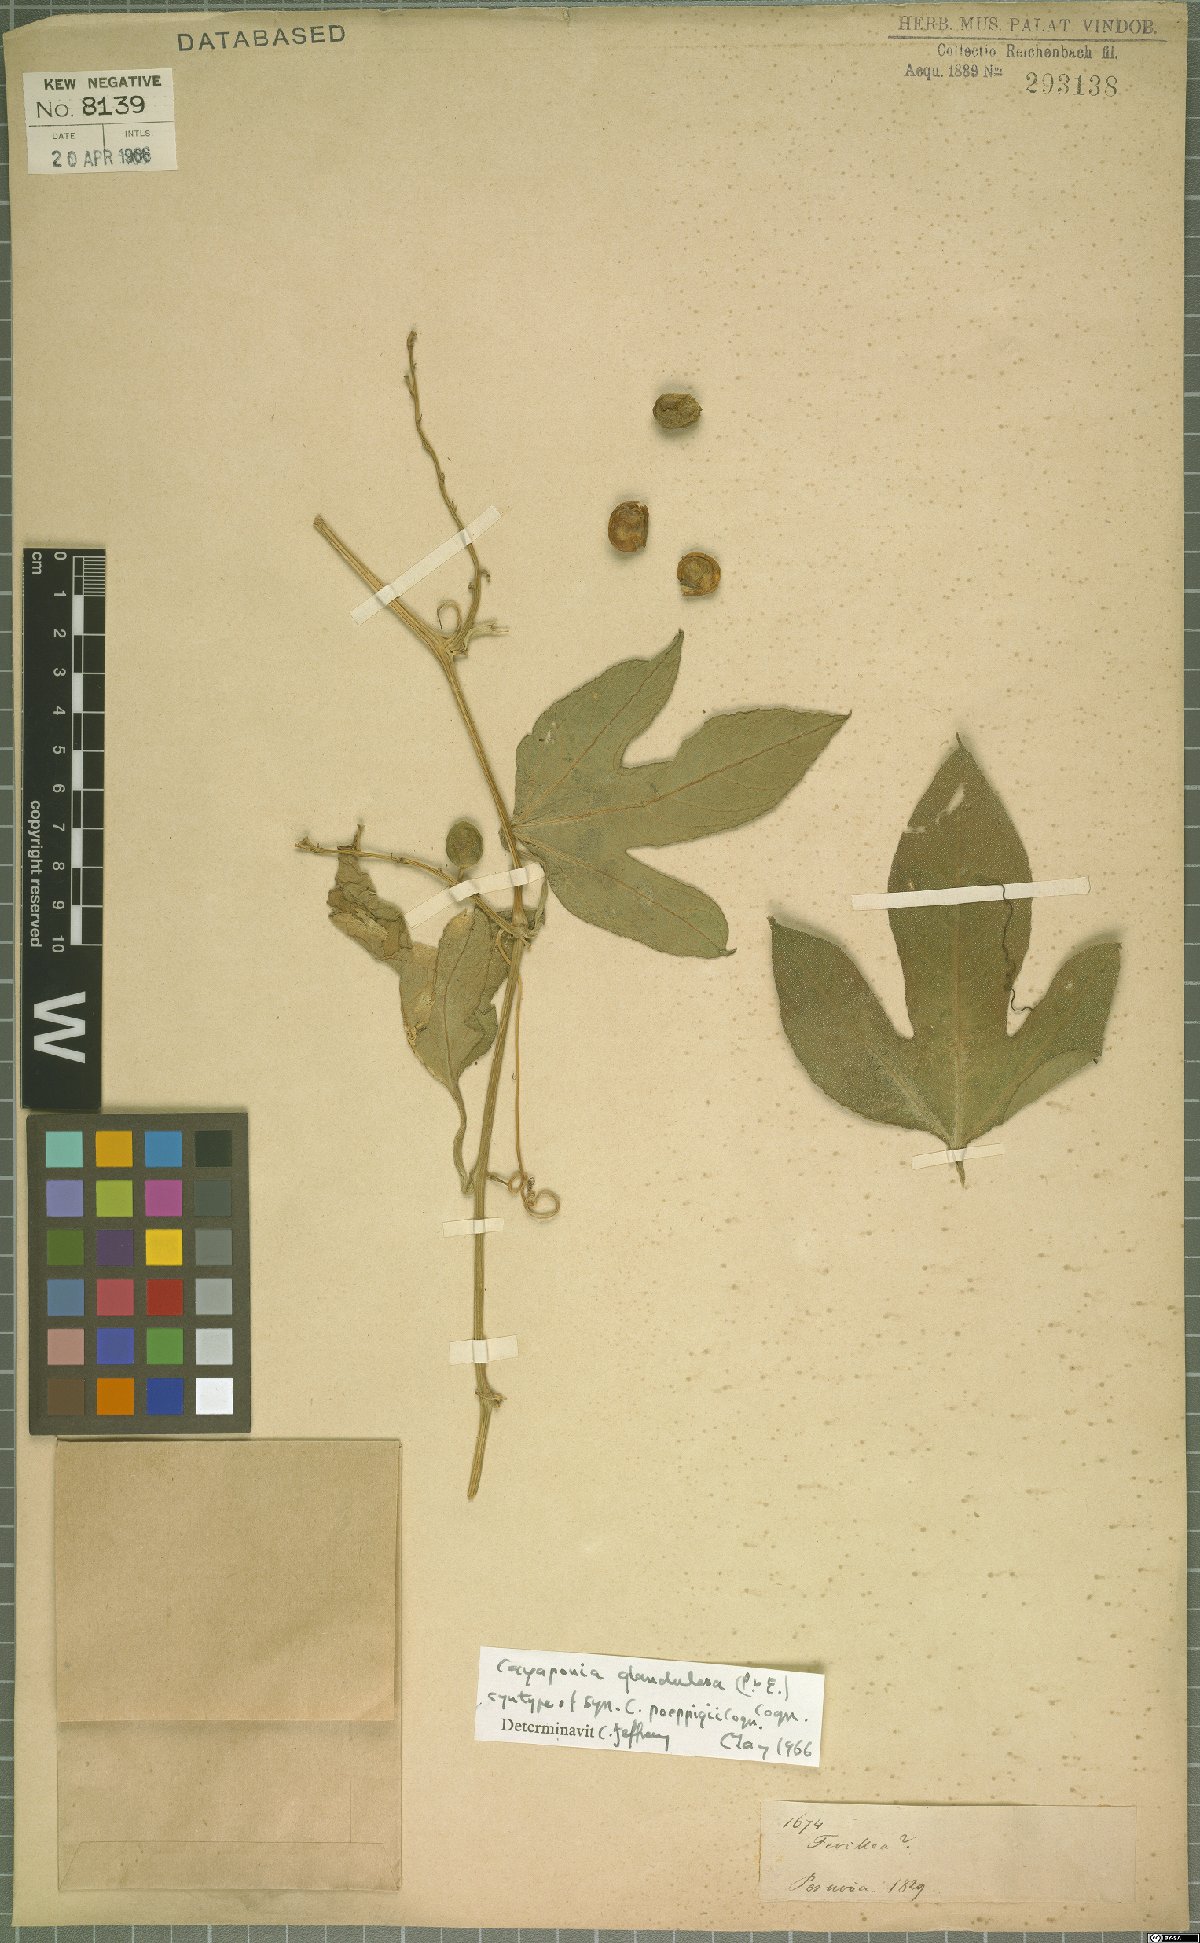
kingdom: Plantae
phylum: Tracheophyta
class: Magnoliopsida
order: Cucurbitales
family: Cucurbitaceae
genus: Cayaponia
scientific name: Cayaponia glandulosa
